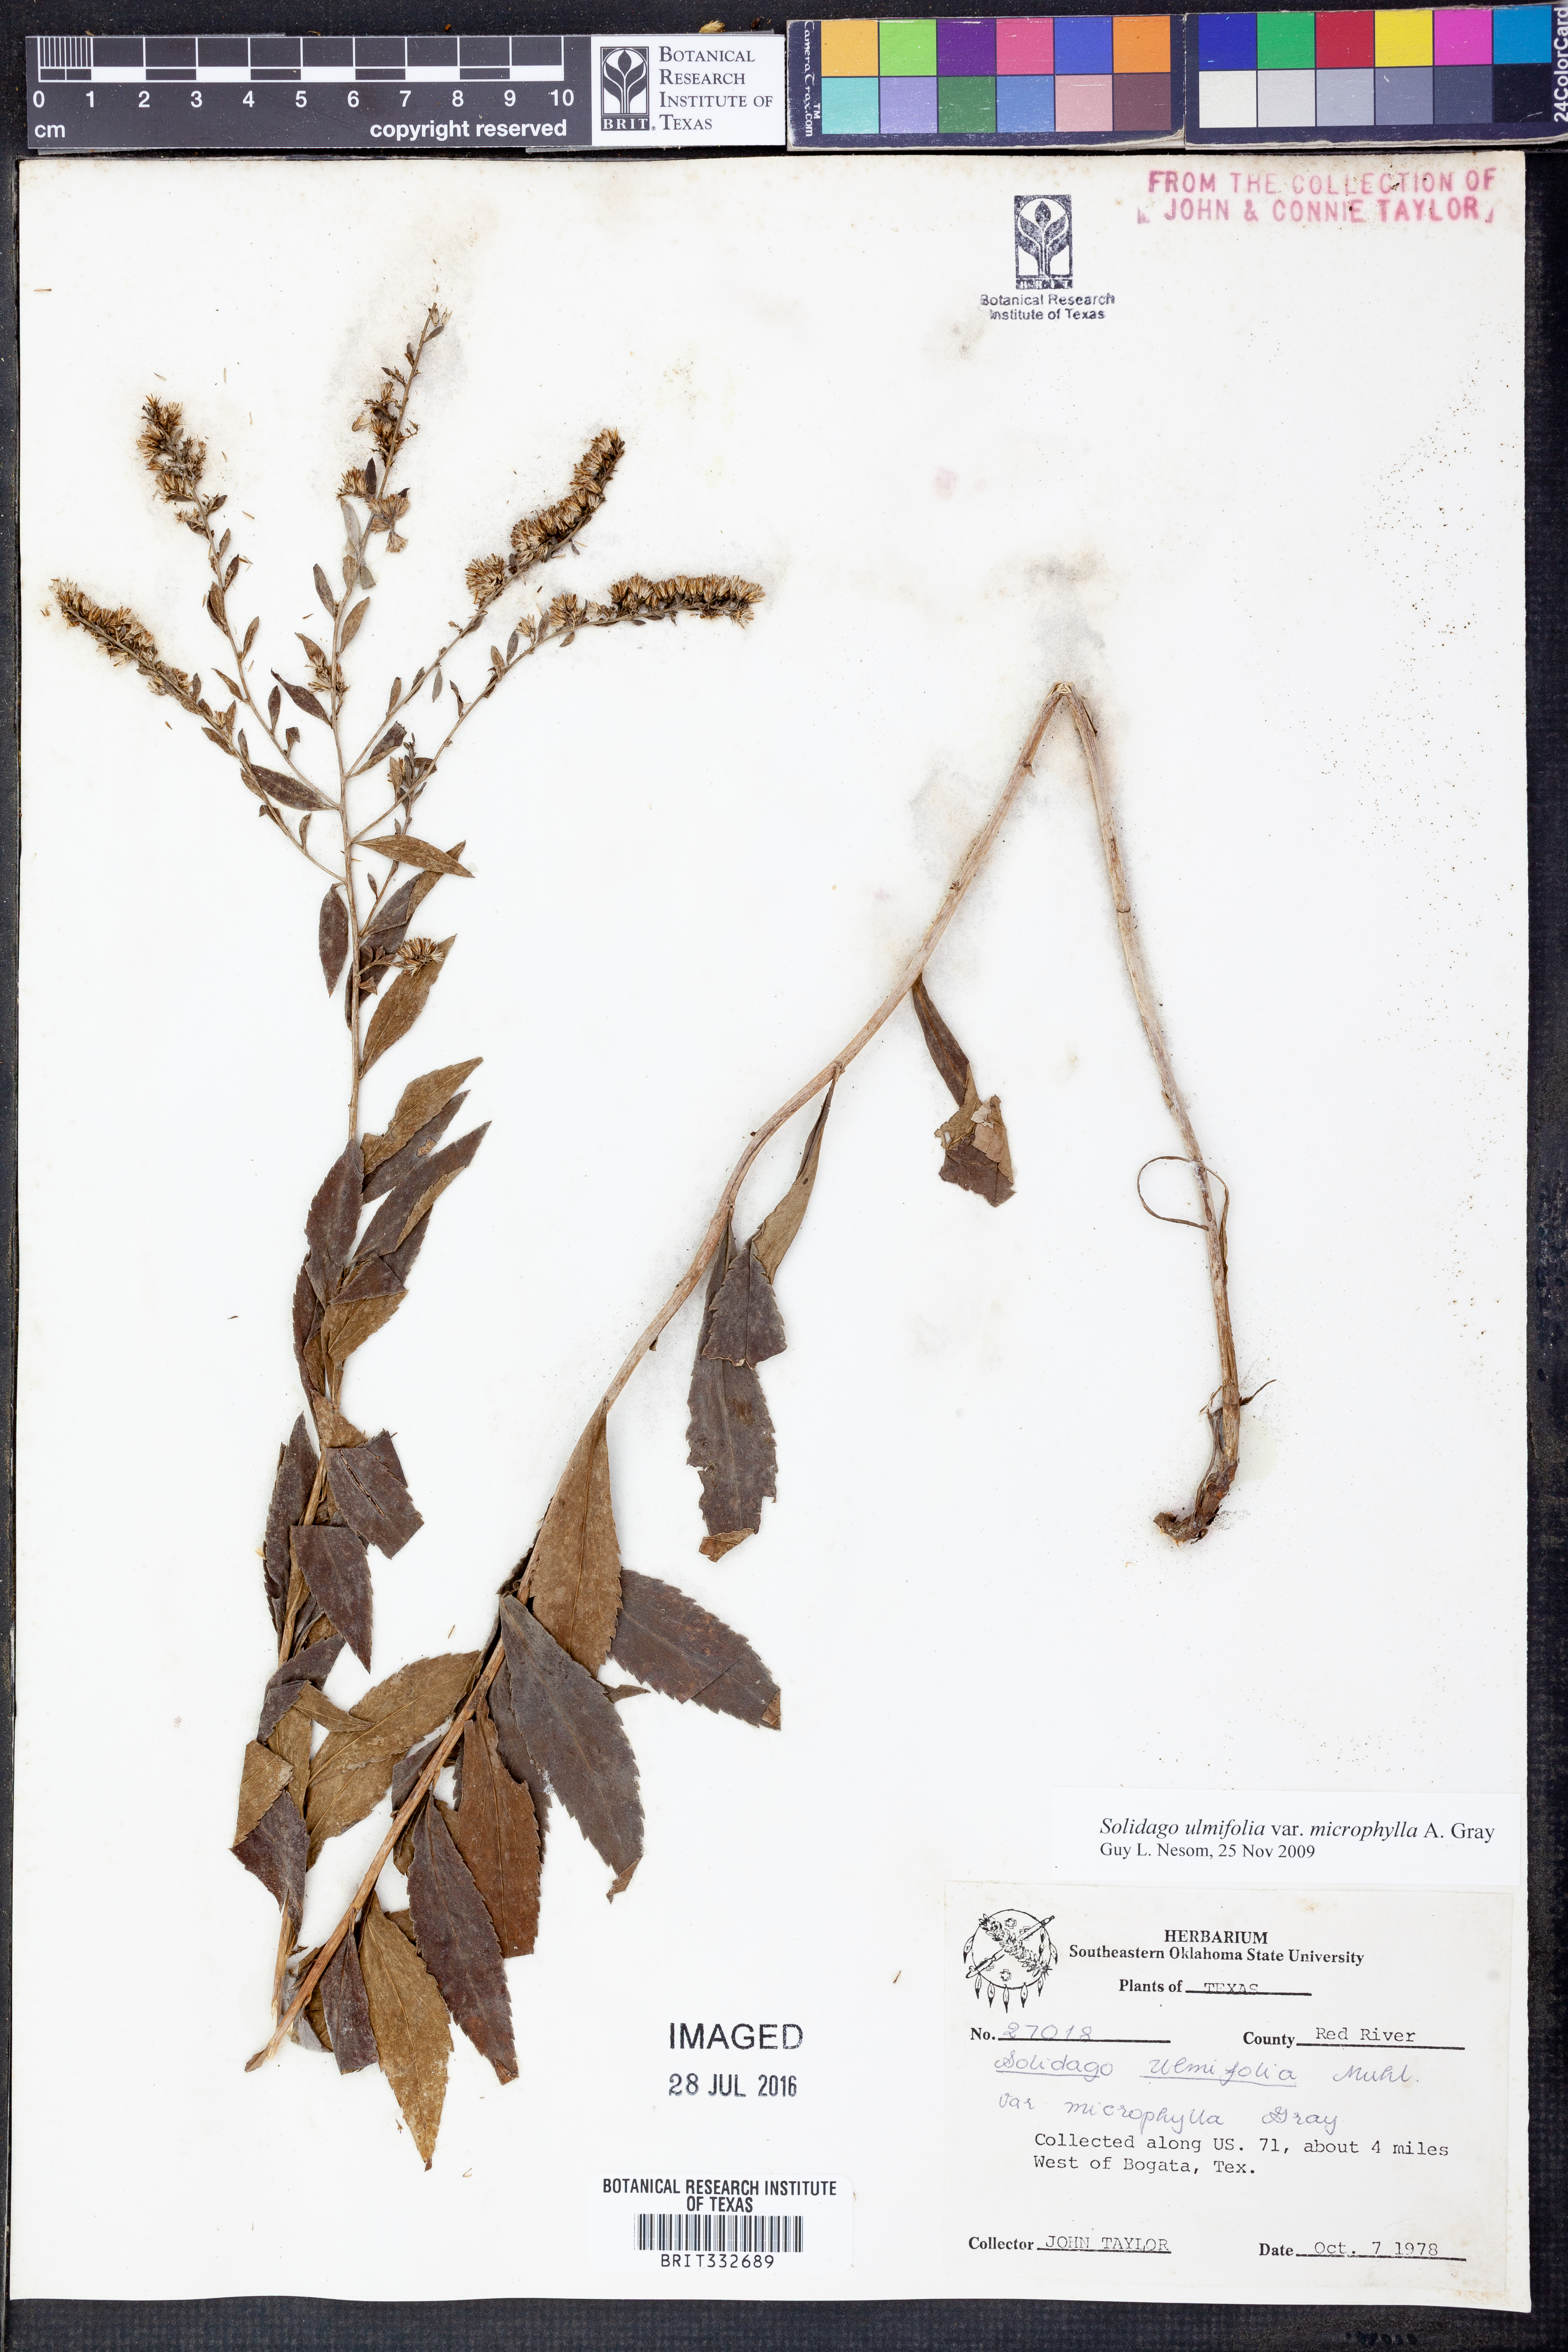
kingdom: Plantae
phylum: Tracheophyta
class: Magnoliopsida
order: Asterales
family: Asteraceae
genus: Solidago
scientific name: Solidago delicatula
